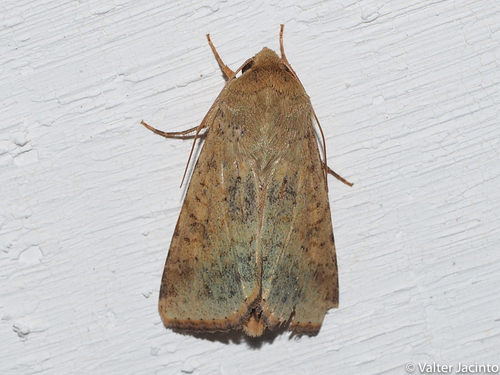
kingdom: Animalia
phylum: Arthropoda
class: Insecta
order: Lepidoptera
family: Noctuidae
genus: Helicoverpa
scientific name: Helicoverpa armigera
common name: Cotton bollworm
